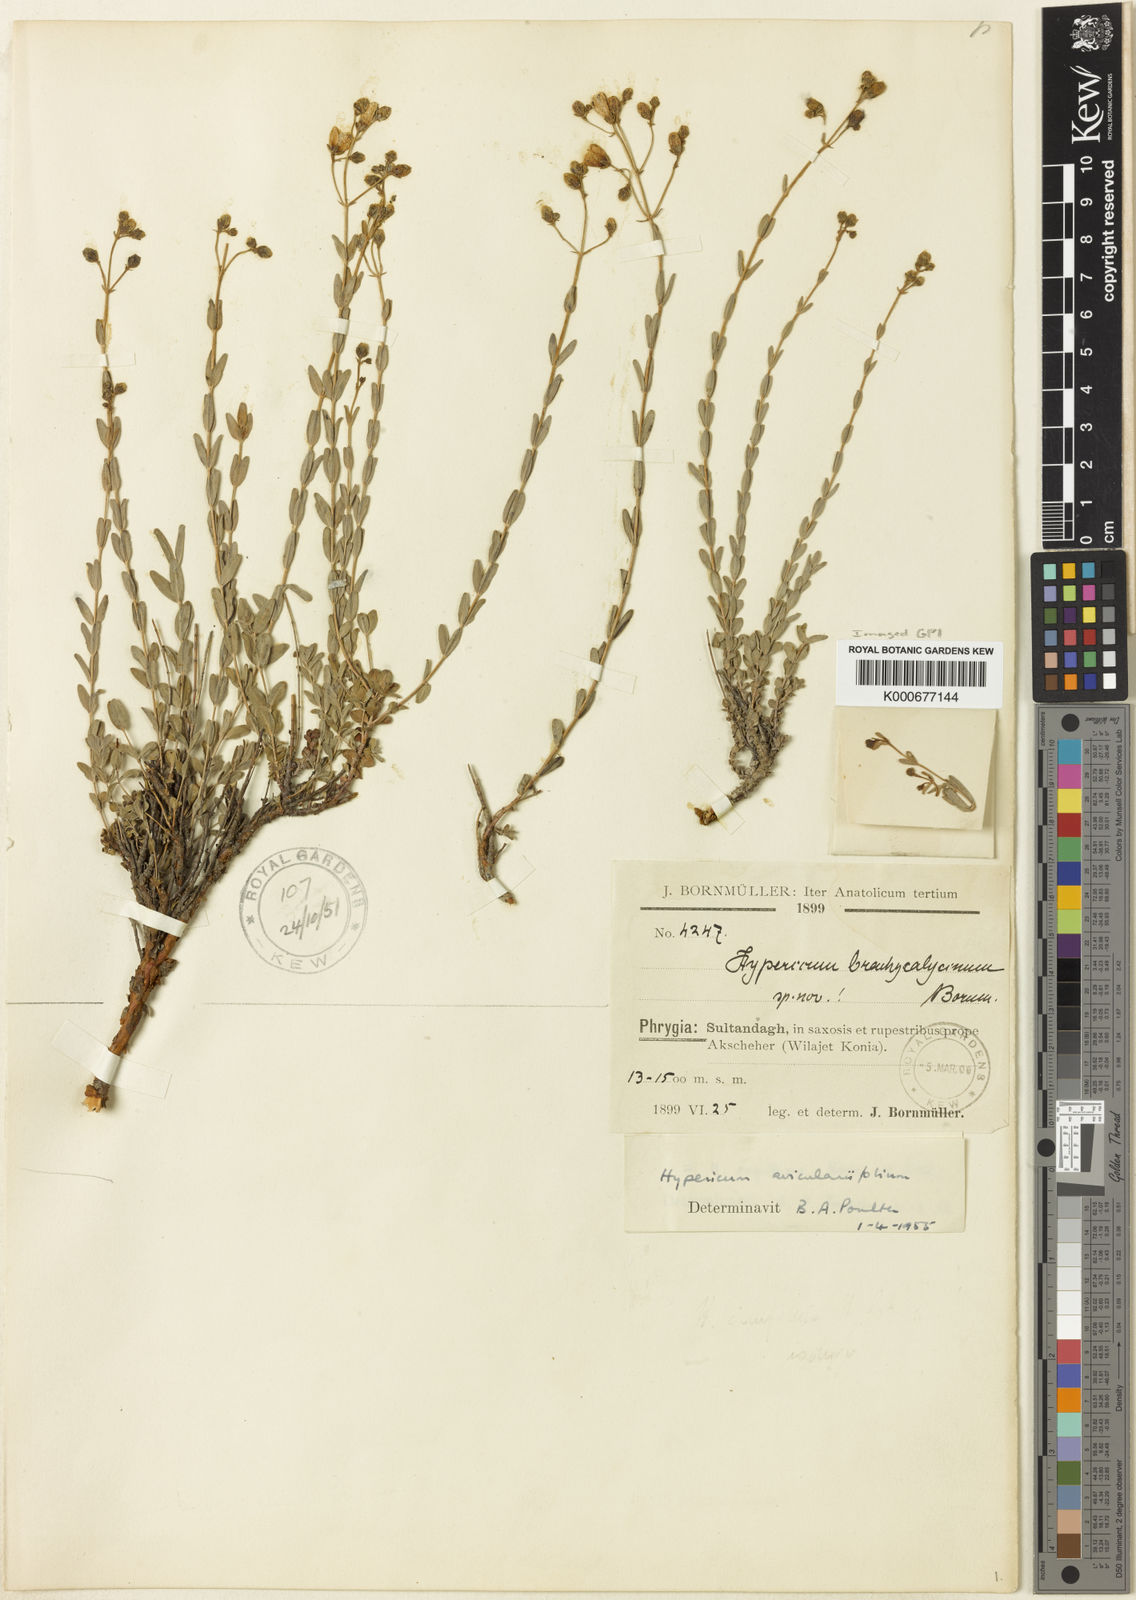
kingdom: Plantae
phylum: Tracheophyta
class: Magnoliopsida
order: Malpighiales
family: Hypericaceae
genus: Hypericum
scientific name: Hypericum aviculariifolium
